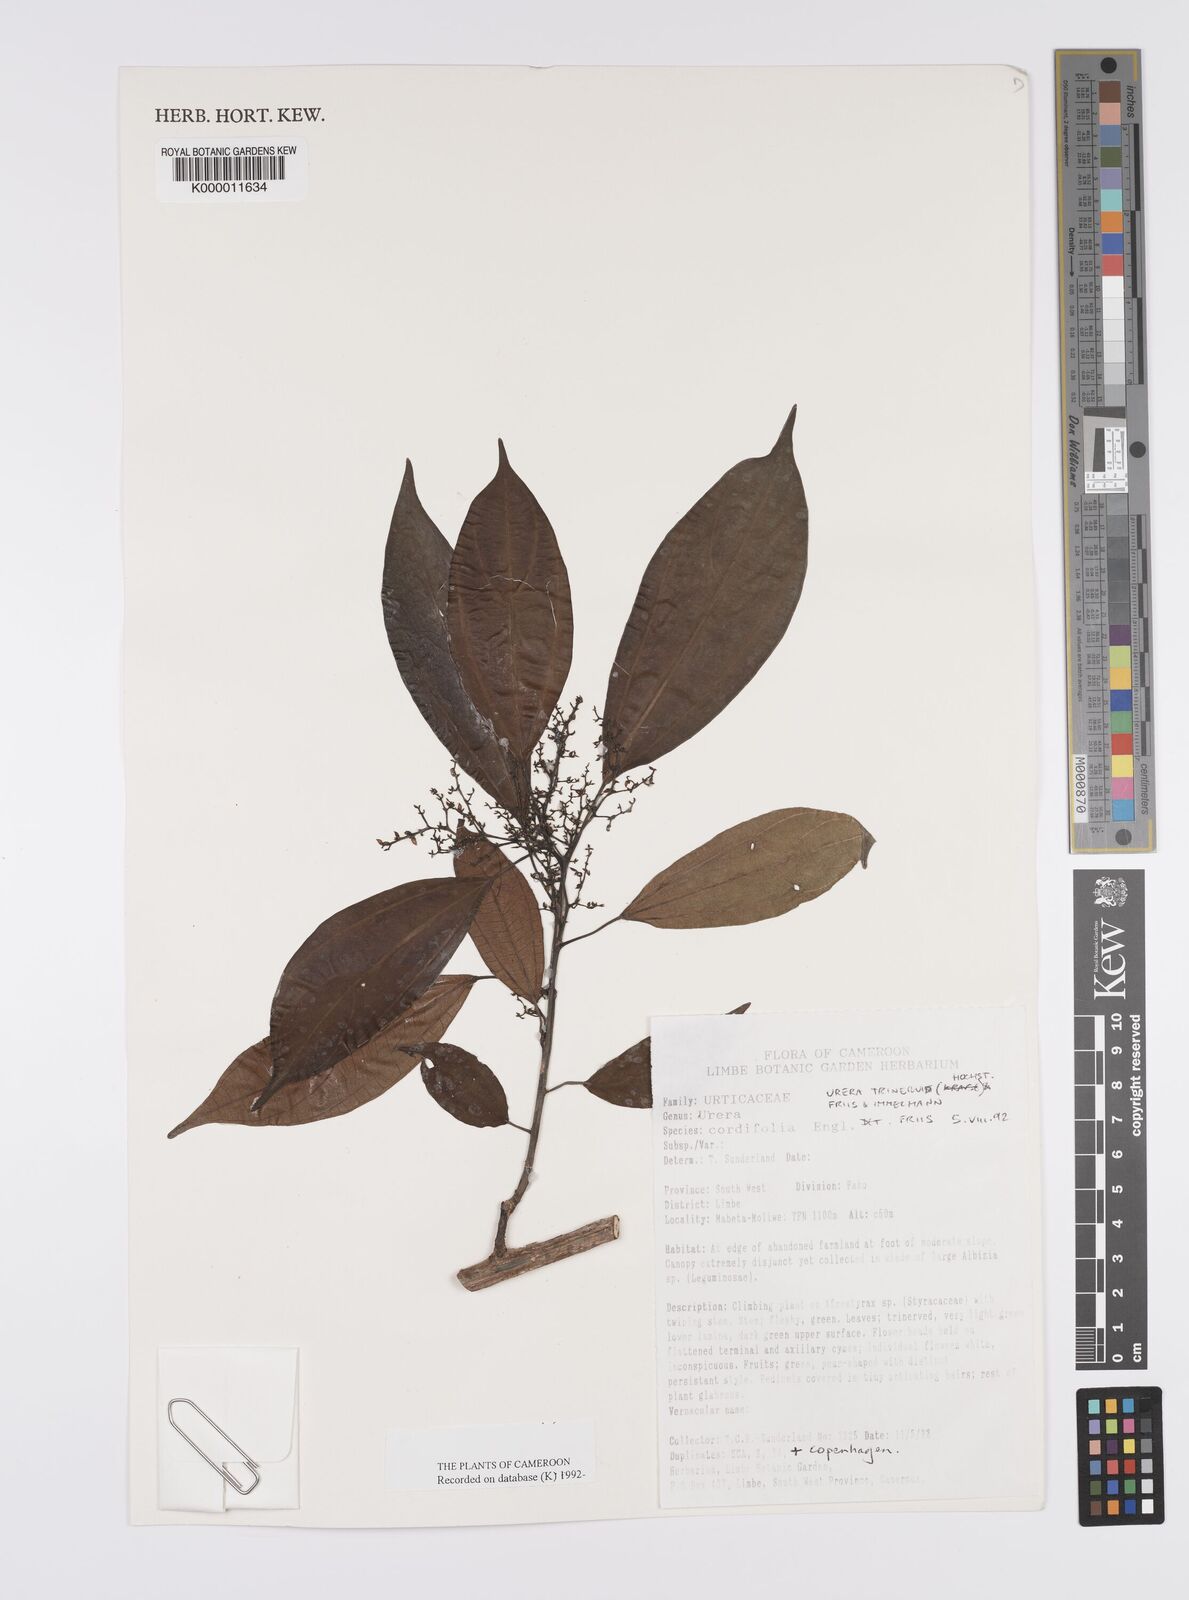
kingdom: Plantae
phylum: Tracheophyta
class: Magnoliopsida
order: Rosales
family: Urticaceae
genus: Scepocarpus
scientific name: Scepocarpus trinervis
